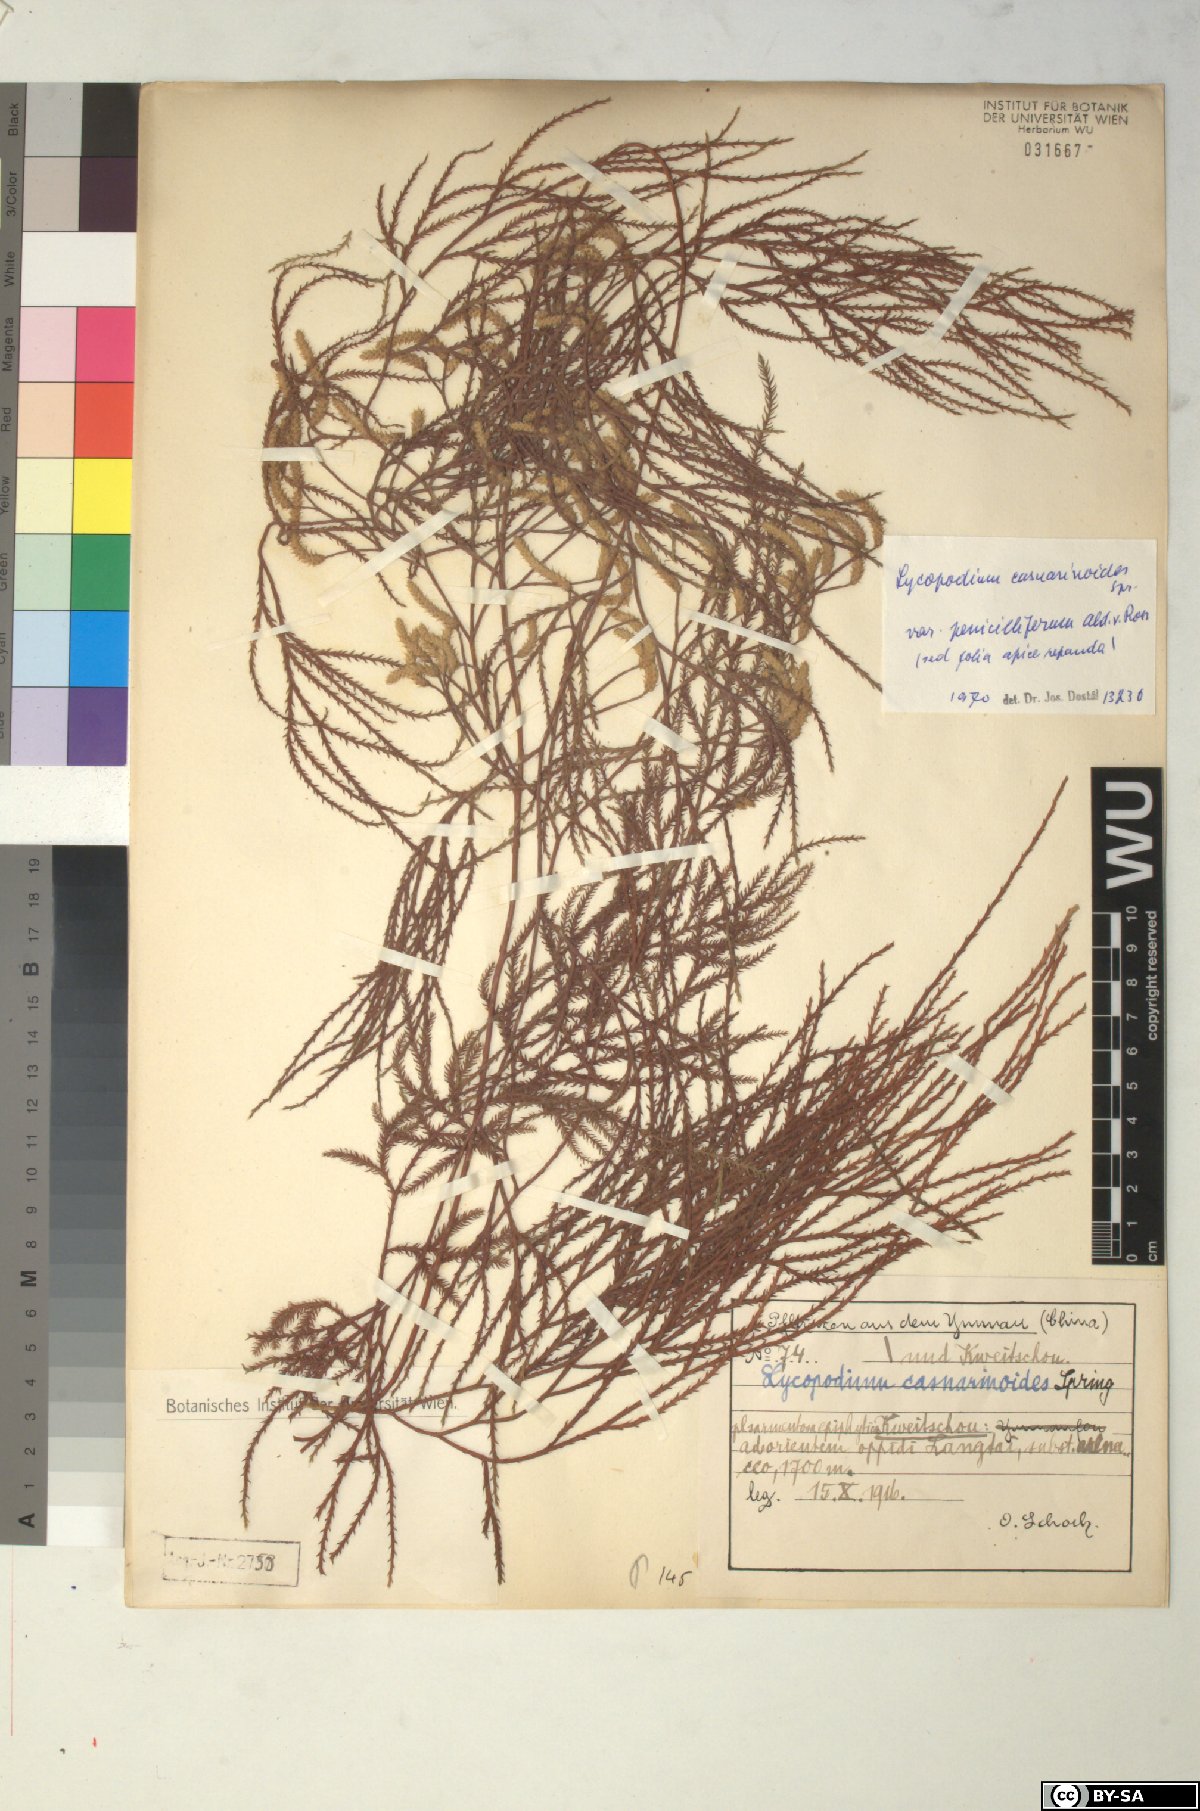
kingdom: Plantae
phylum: Tracheophyta
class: Lycopodiopsida
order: Lycopodiales
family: Lycopodiaceae
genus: Lycopodiastrum
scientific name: Lycopodiastrum casuarinoides
